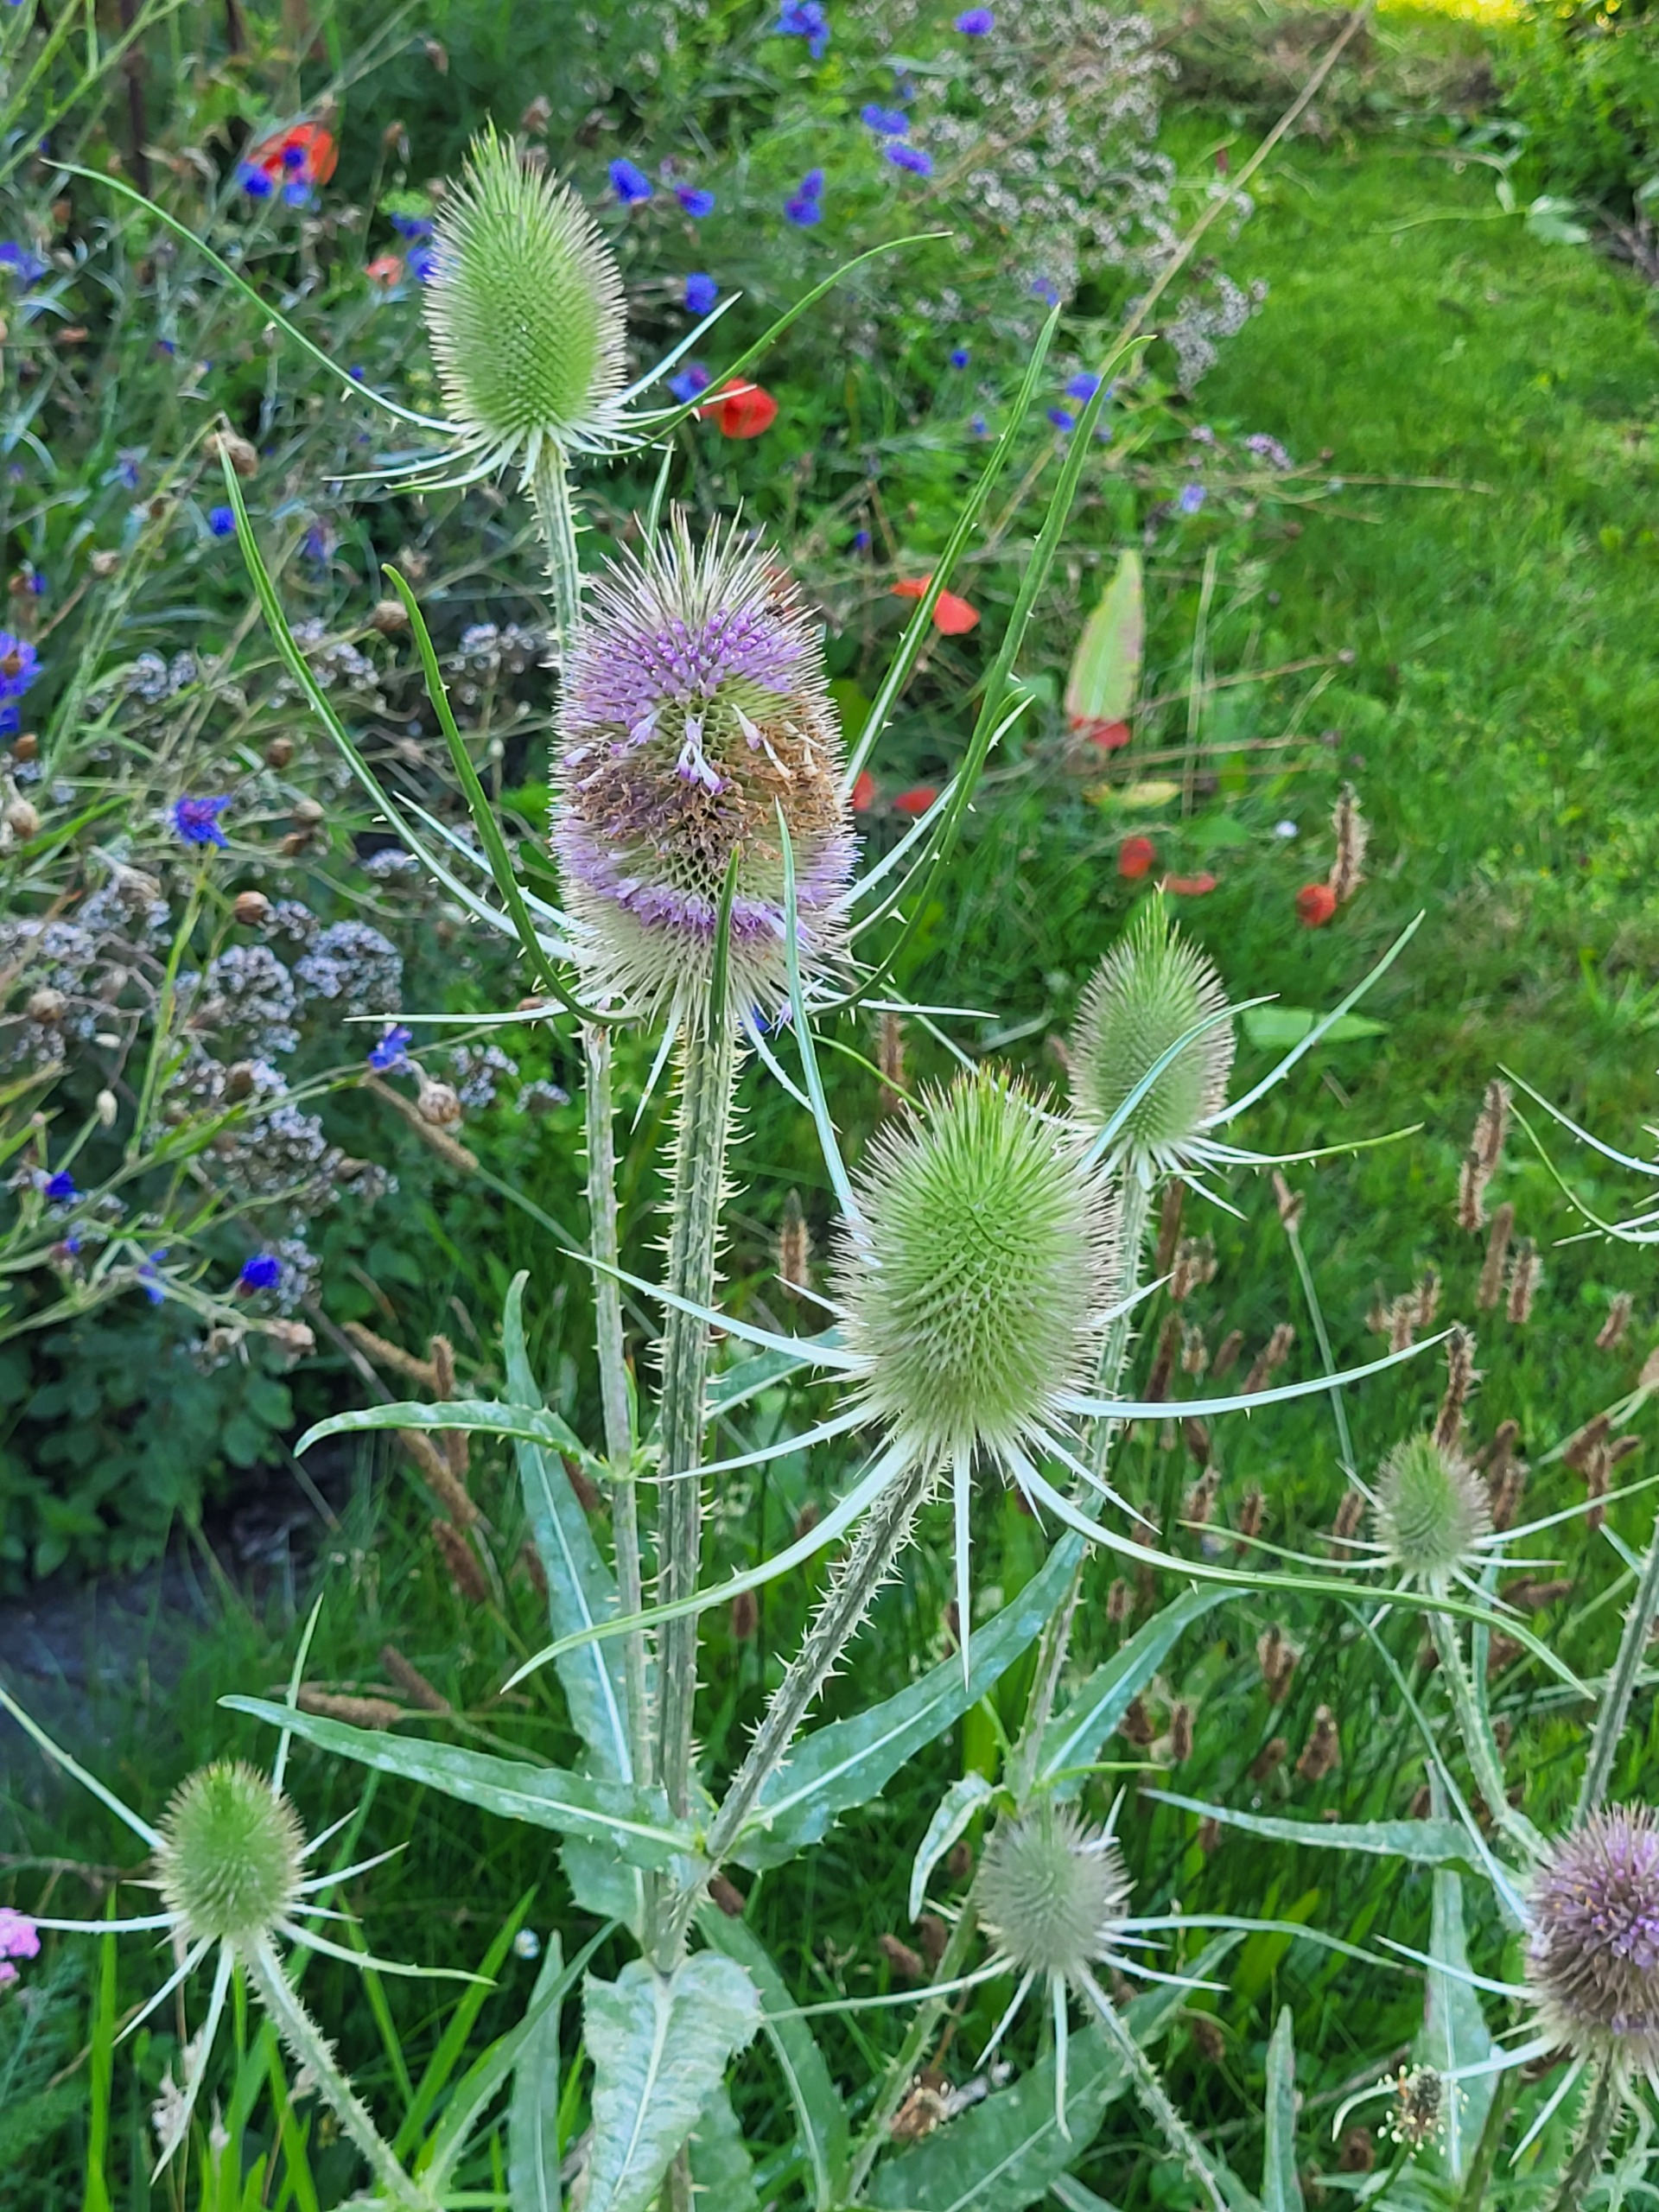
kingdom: Plantae
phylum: Tracheophyta
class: Magnoliopsida
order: Dipsacales
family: Caprifoliaceae
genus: Dipsacus
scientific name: Dipsacus fullonum
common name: Gærde-kartebolle
